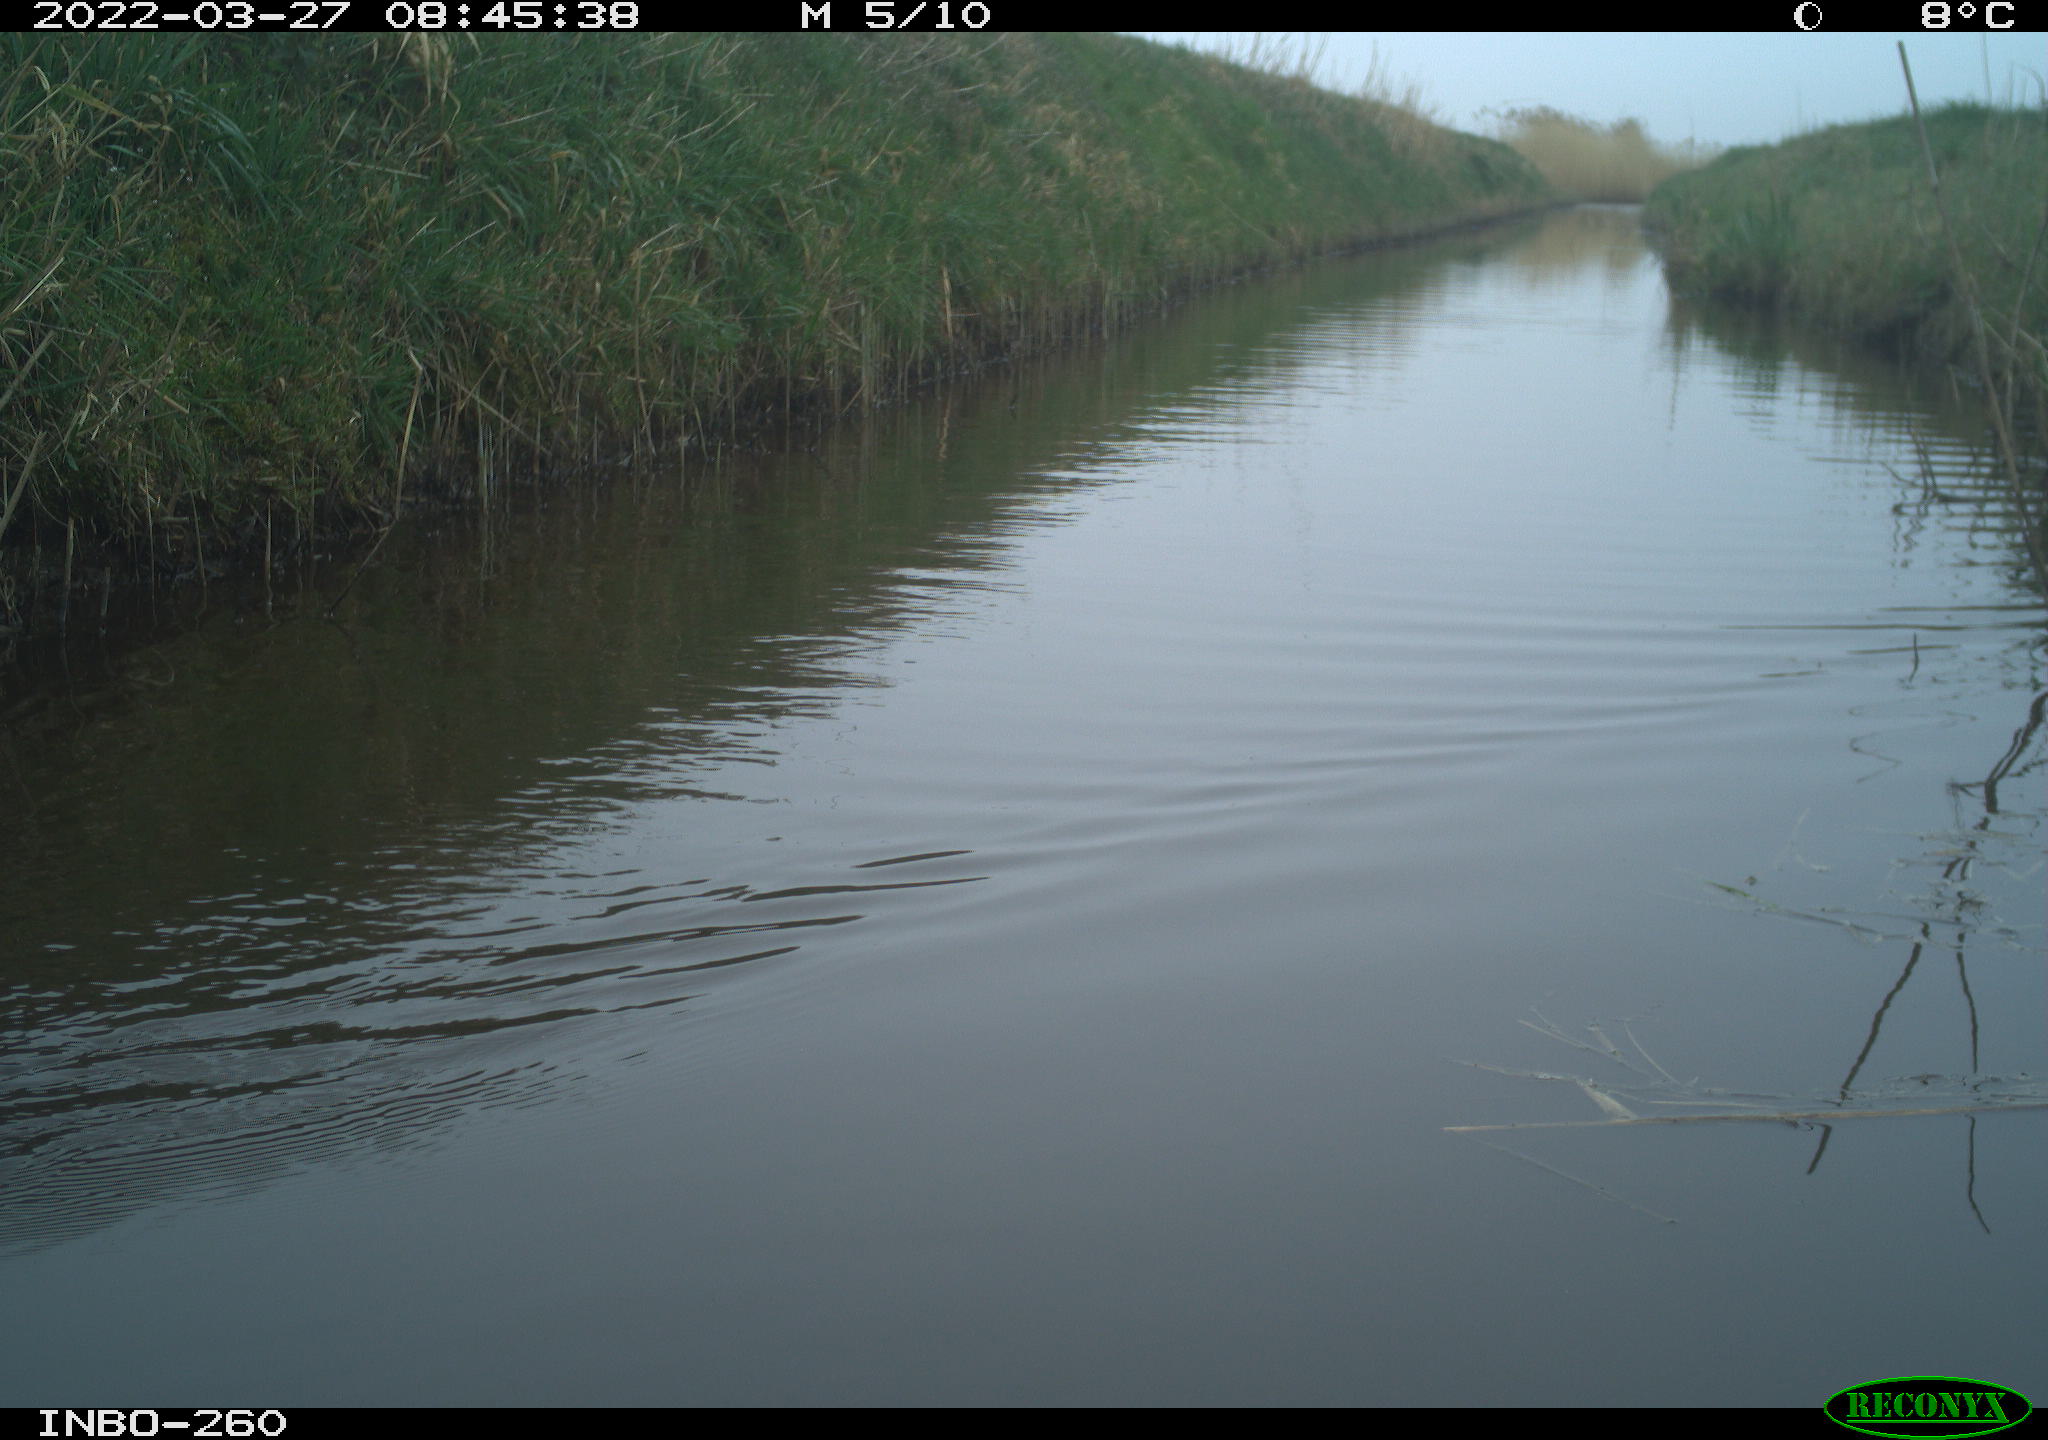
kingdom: Animalia
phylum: Chordata
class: Aves
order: Gruiformes
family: Rallidae
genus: Fulica
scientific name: Fulica atra
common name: Eurasian coot
